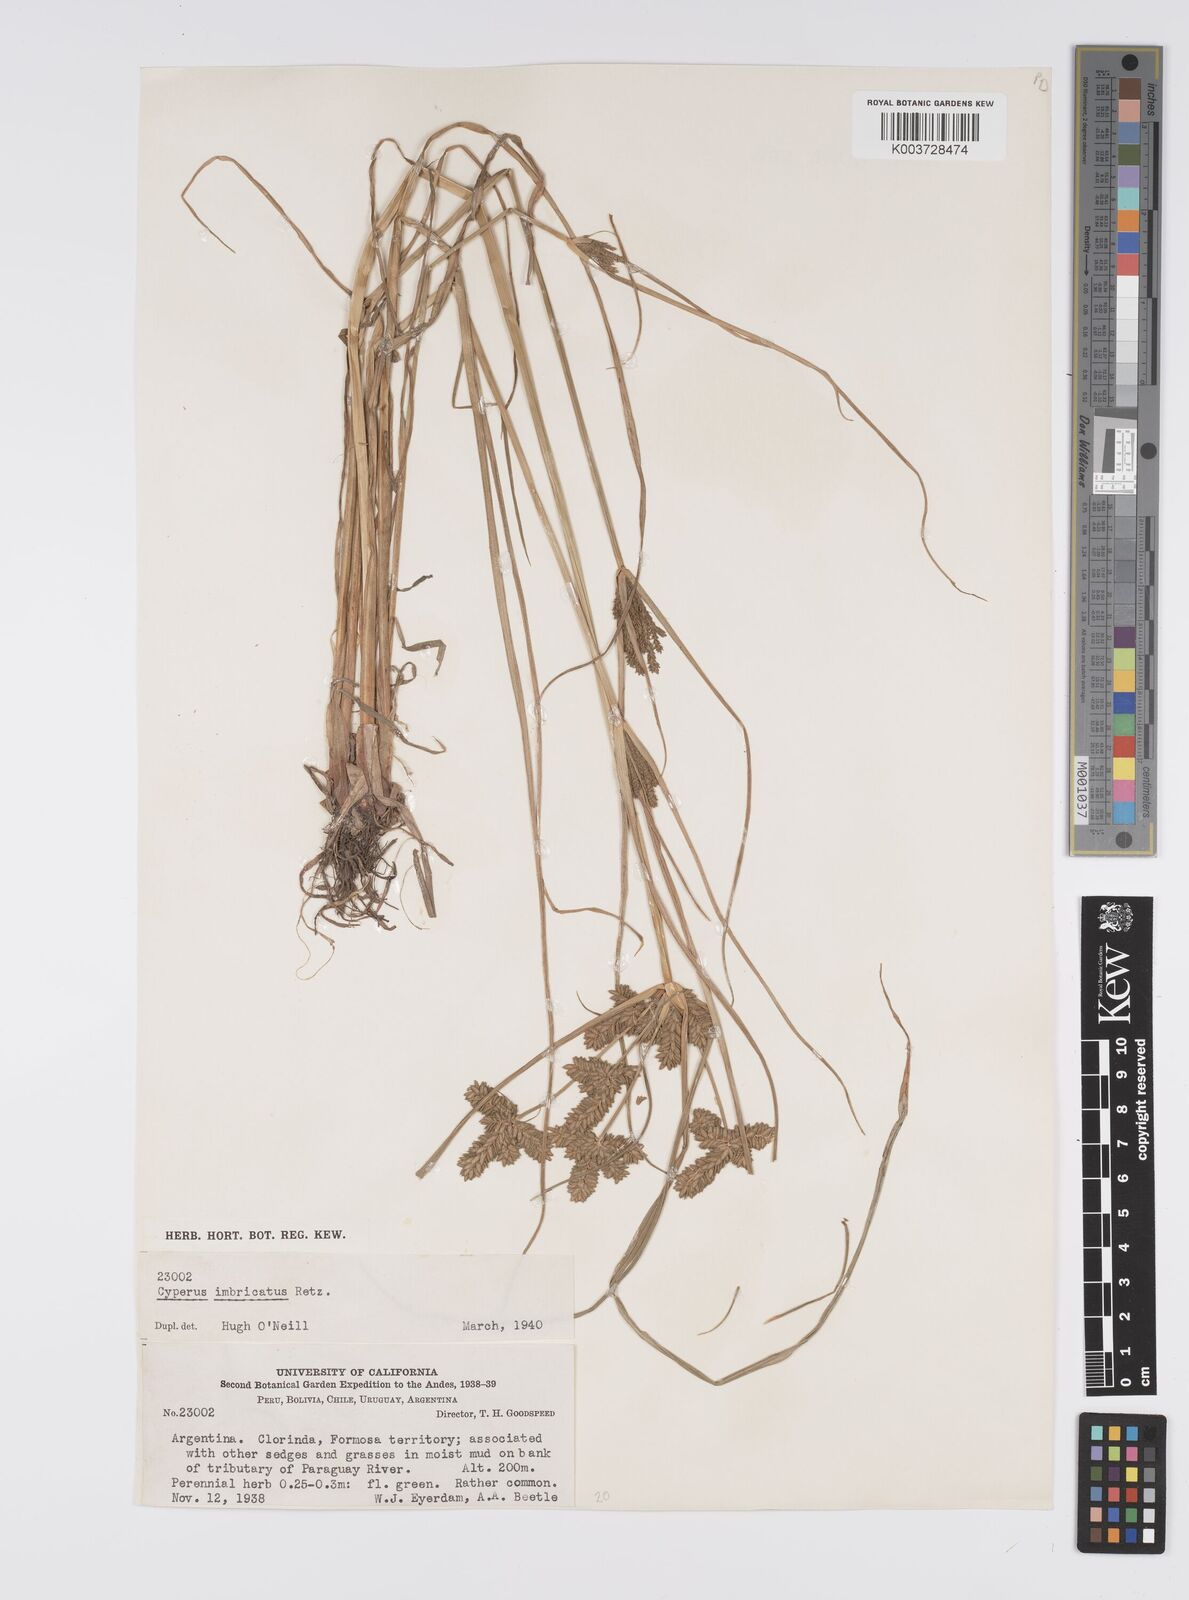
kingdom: Plantae
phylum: Tracheophyta
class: Liliopsida
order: Poales
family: Cyperaceae
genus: Cyperus
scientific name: Cyperus imbricatus
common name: Shingle flatsedge
